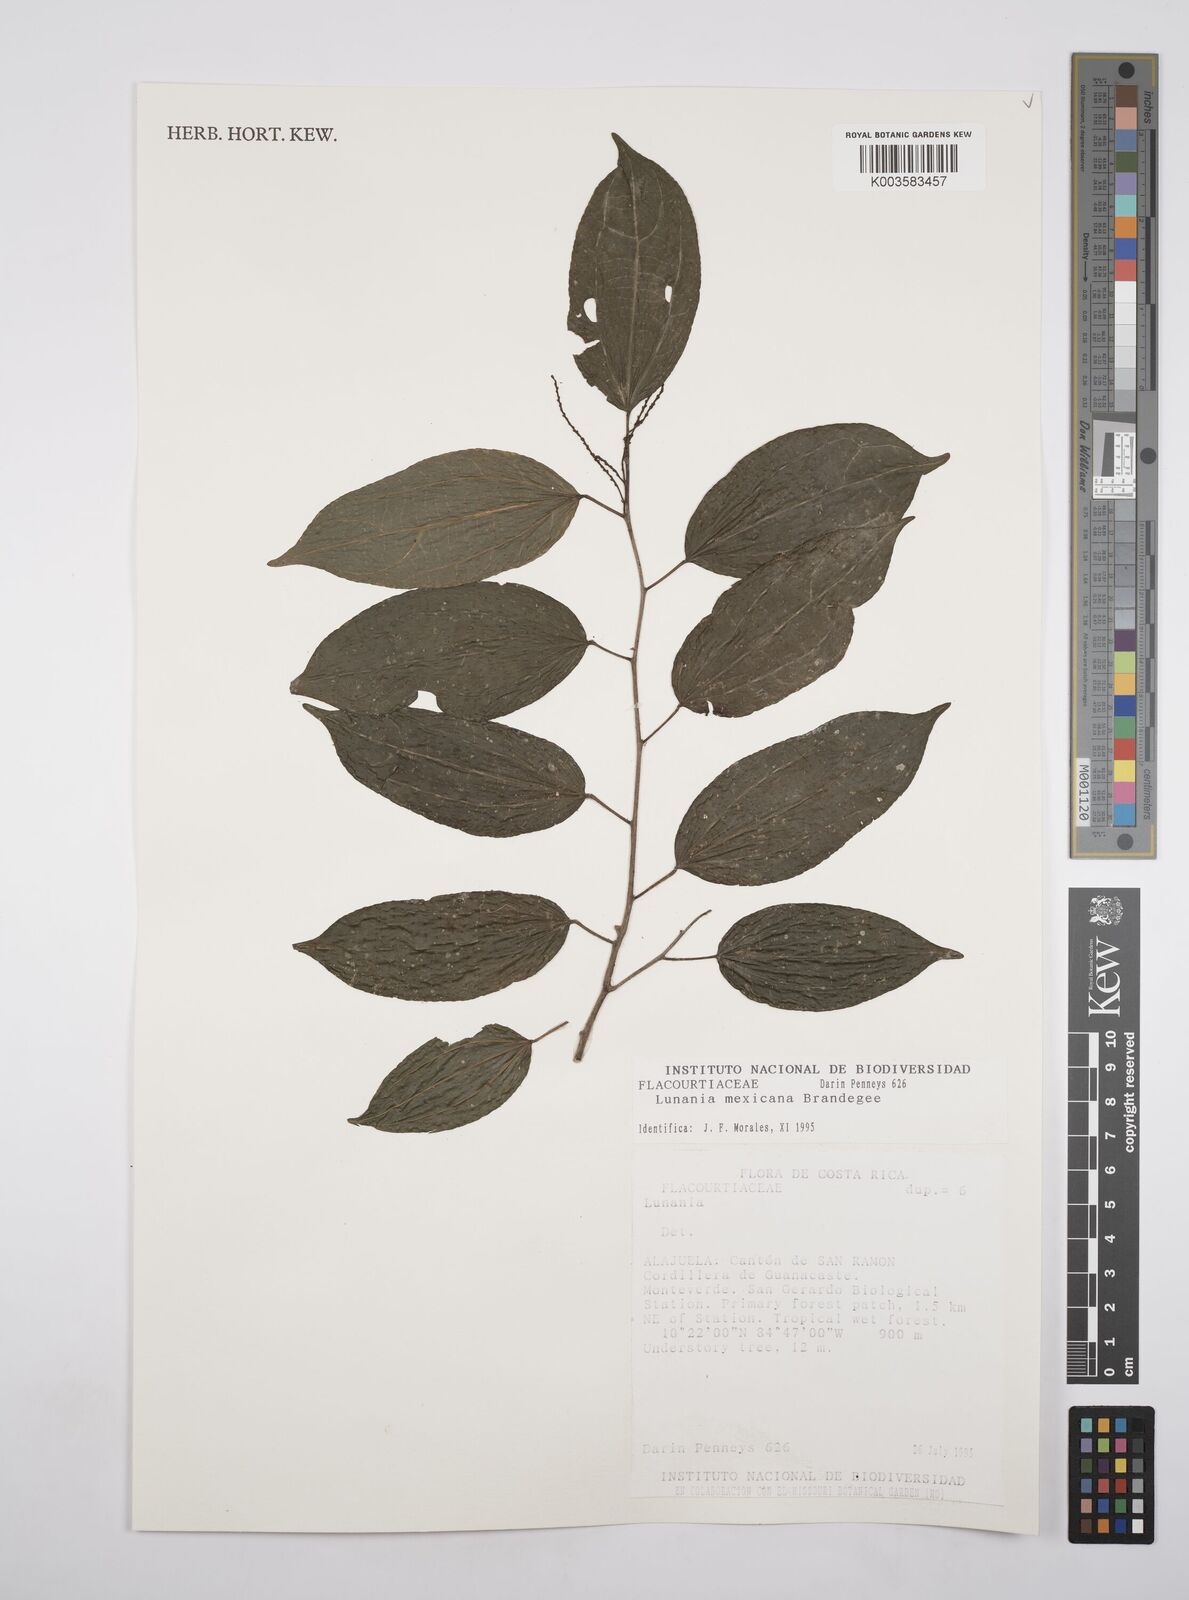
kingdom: Plantae
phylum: Tracheophyta
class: Magnoliopsida
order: Malpighiales
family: Salicaceae
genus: Lunania
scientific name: Lunania mexicana
